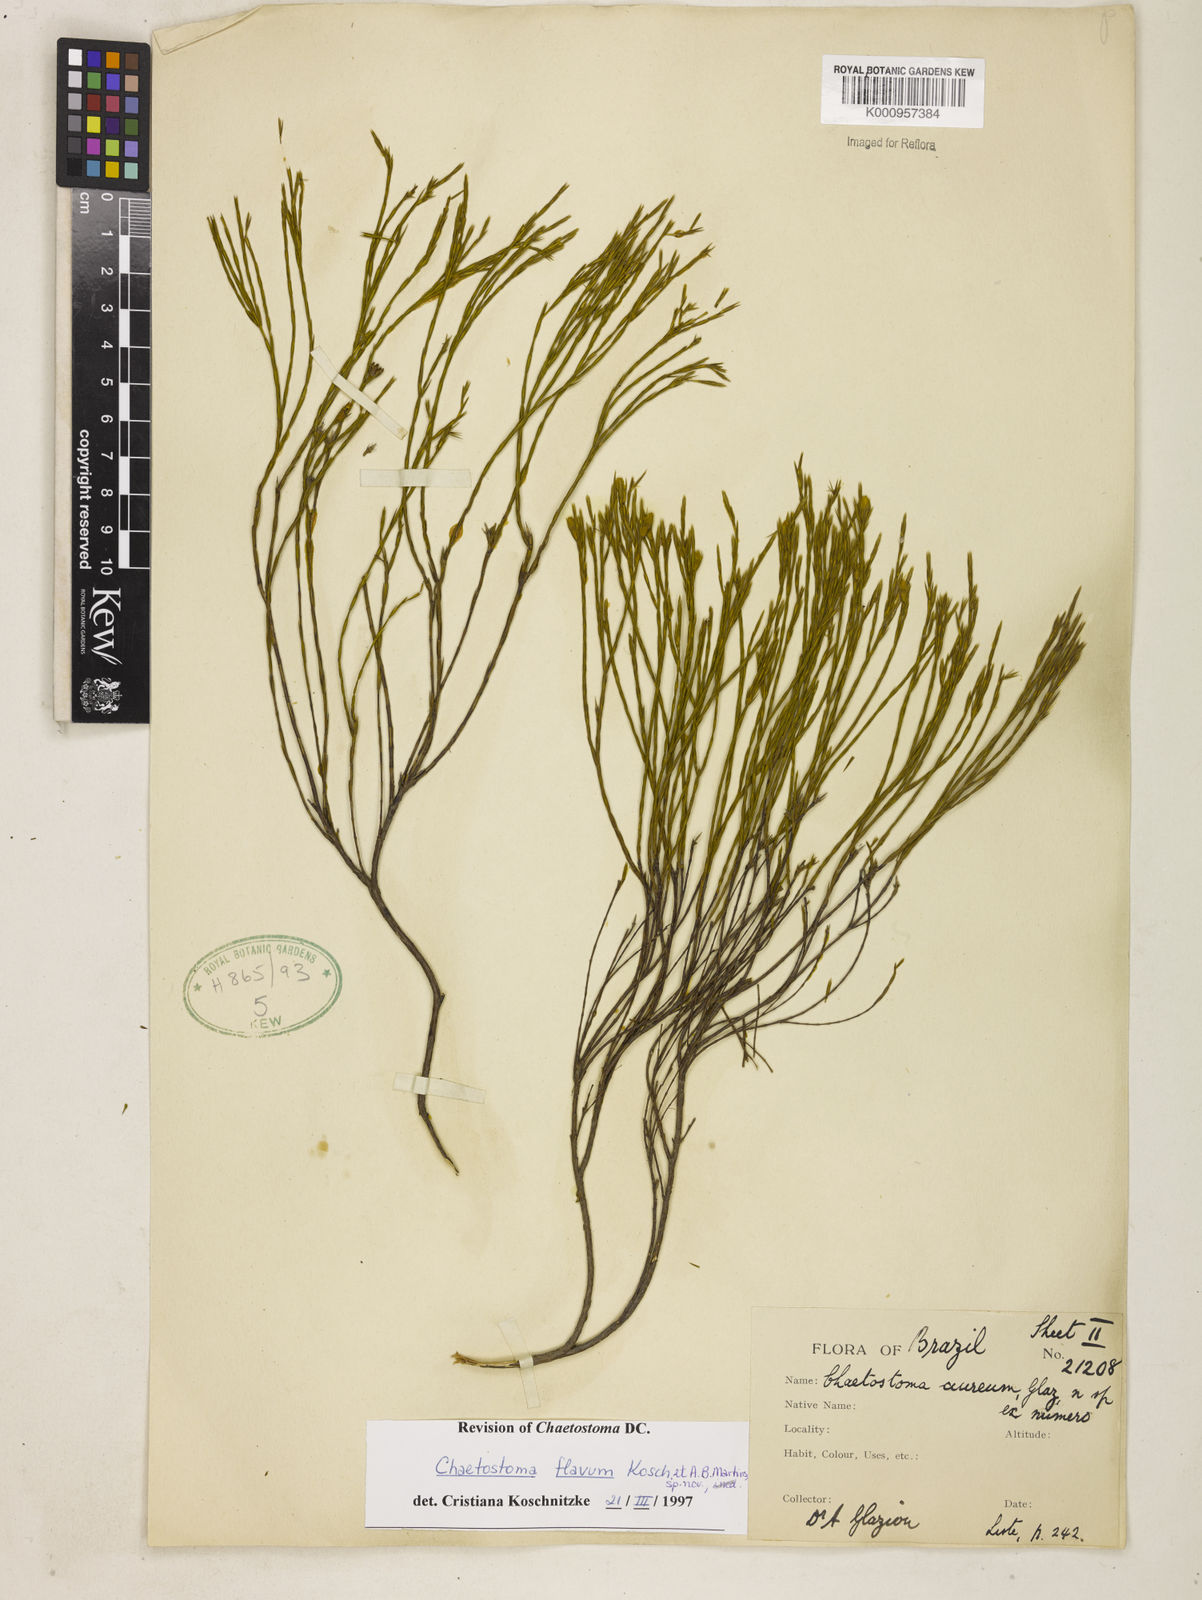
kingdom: Plantae
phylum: Tracheophyta
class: Magnoliopsida
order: Myrtales
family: Melastomataceae
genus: Microlicia
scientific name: Microlicia flavipetala
